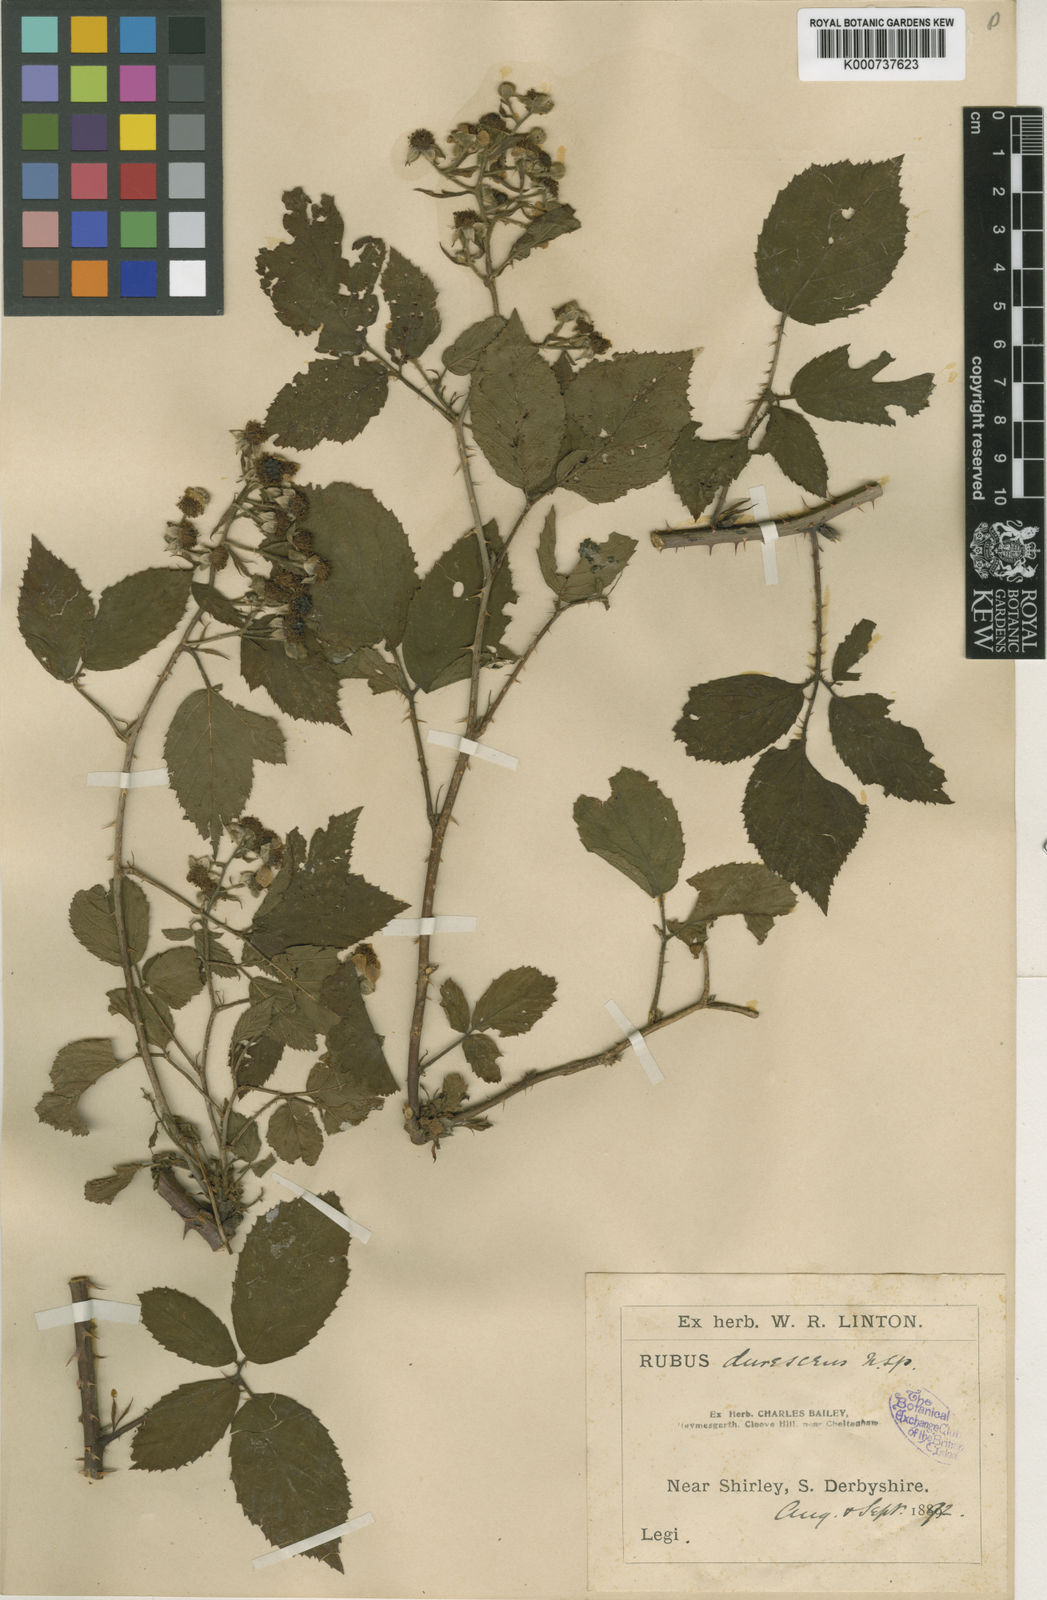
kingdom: Plantae
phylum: Tracheophyta
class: Magnoliopsida
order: Rosales
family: Rosaceae
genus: Rubus
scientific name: Rubus durescens
